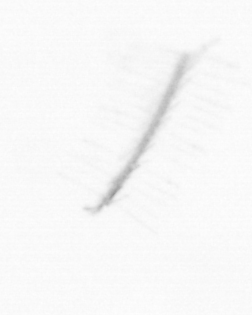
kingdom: Chromista
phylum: Ochrophyta
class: Bacillariophyceae
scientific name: Bacillariophyceae
